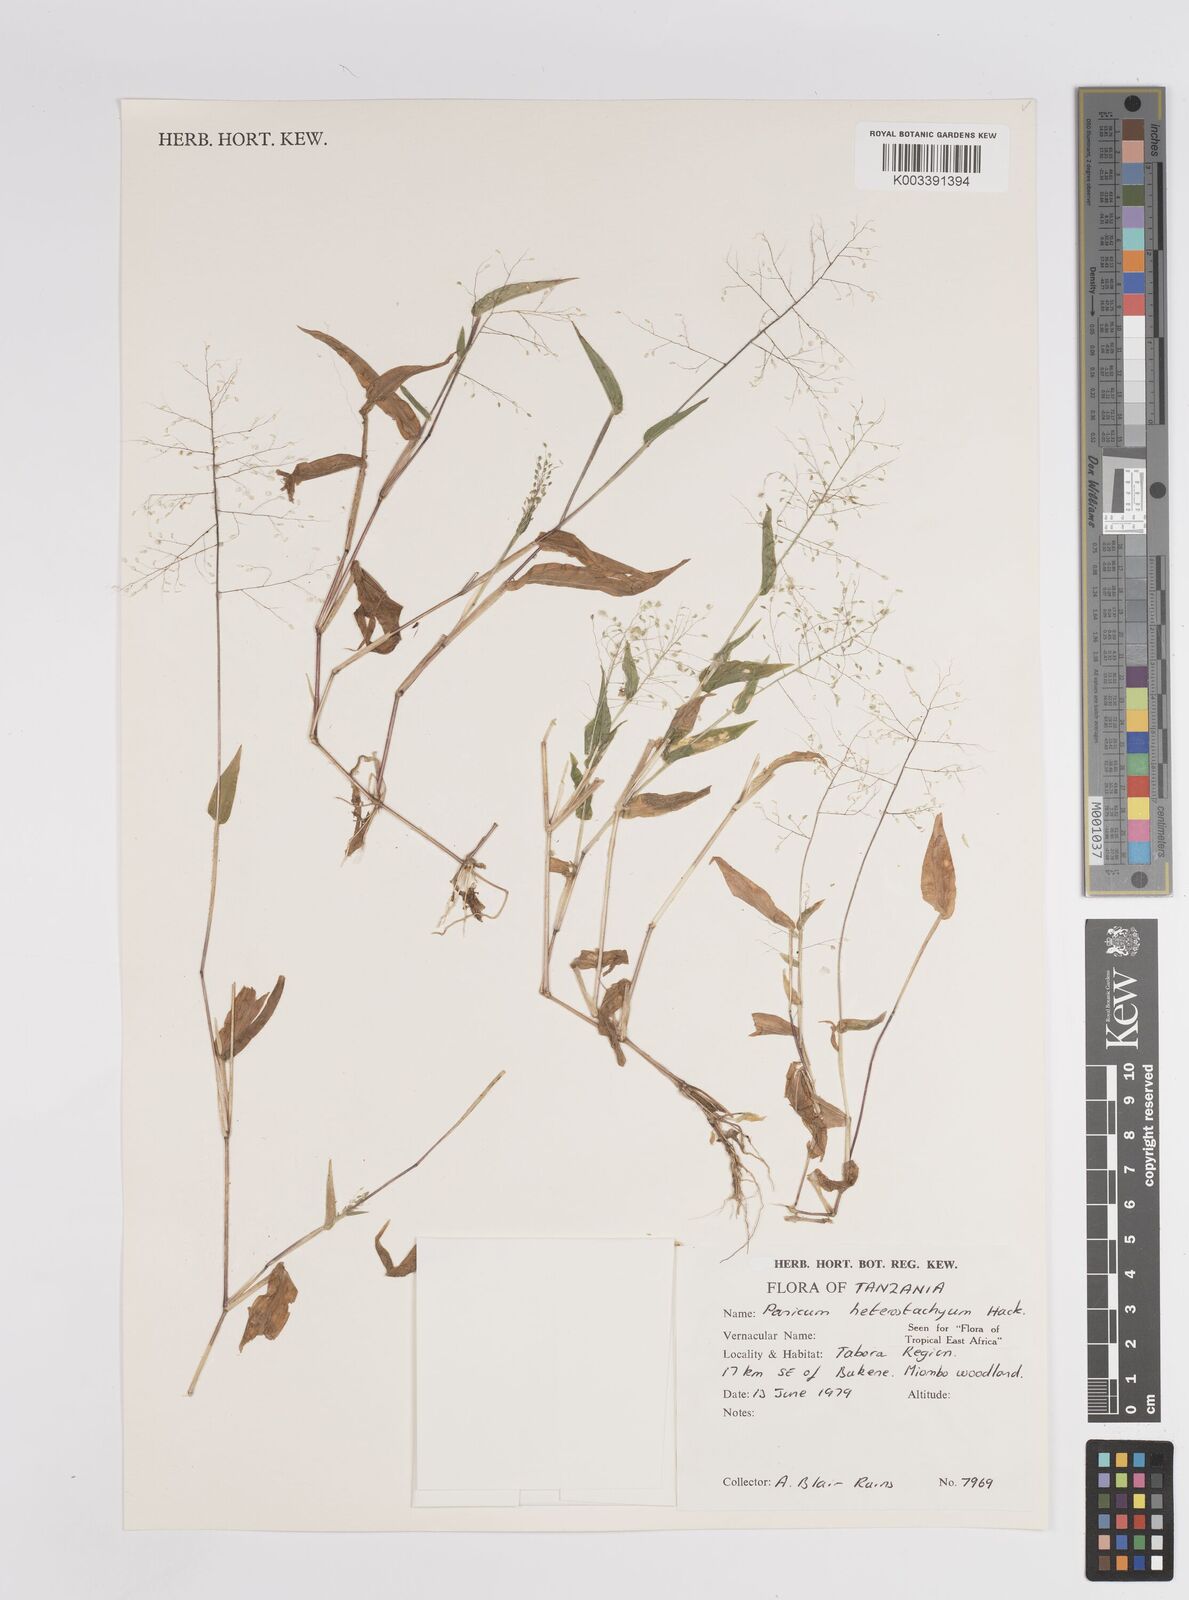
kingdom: Plantae
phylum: Tracheophyta
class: Liliopsida
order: Poales
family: Poaceae
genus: Panicum
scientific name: Panicum hirtum
